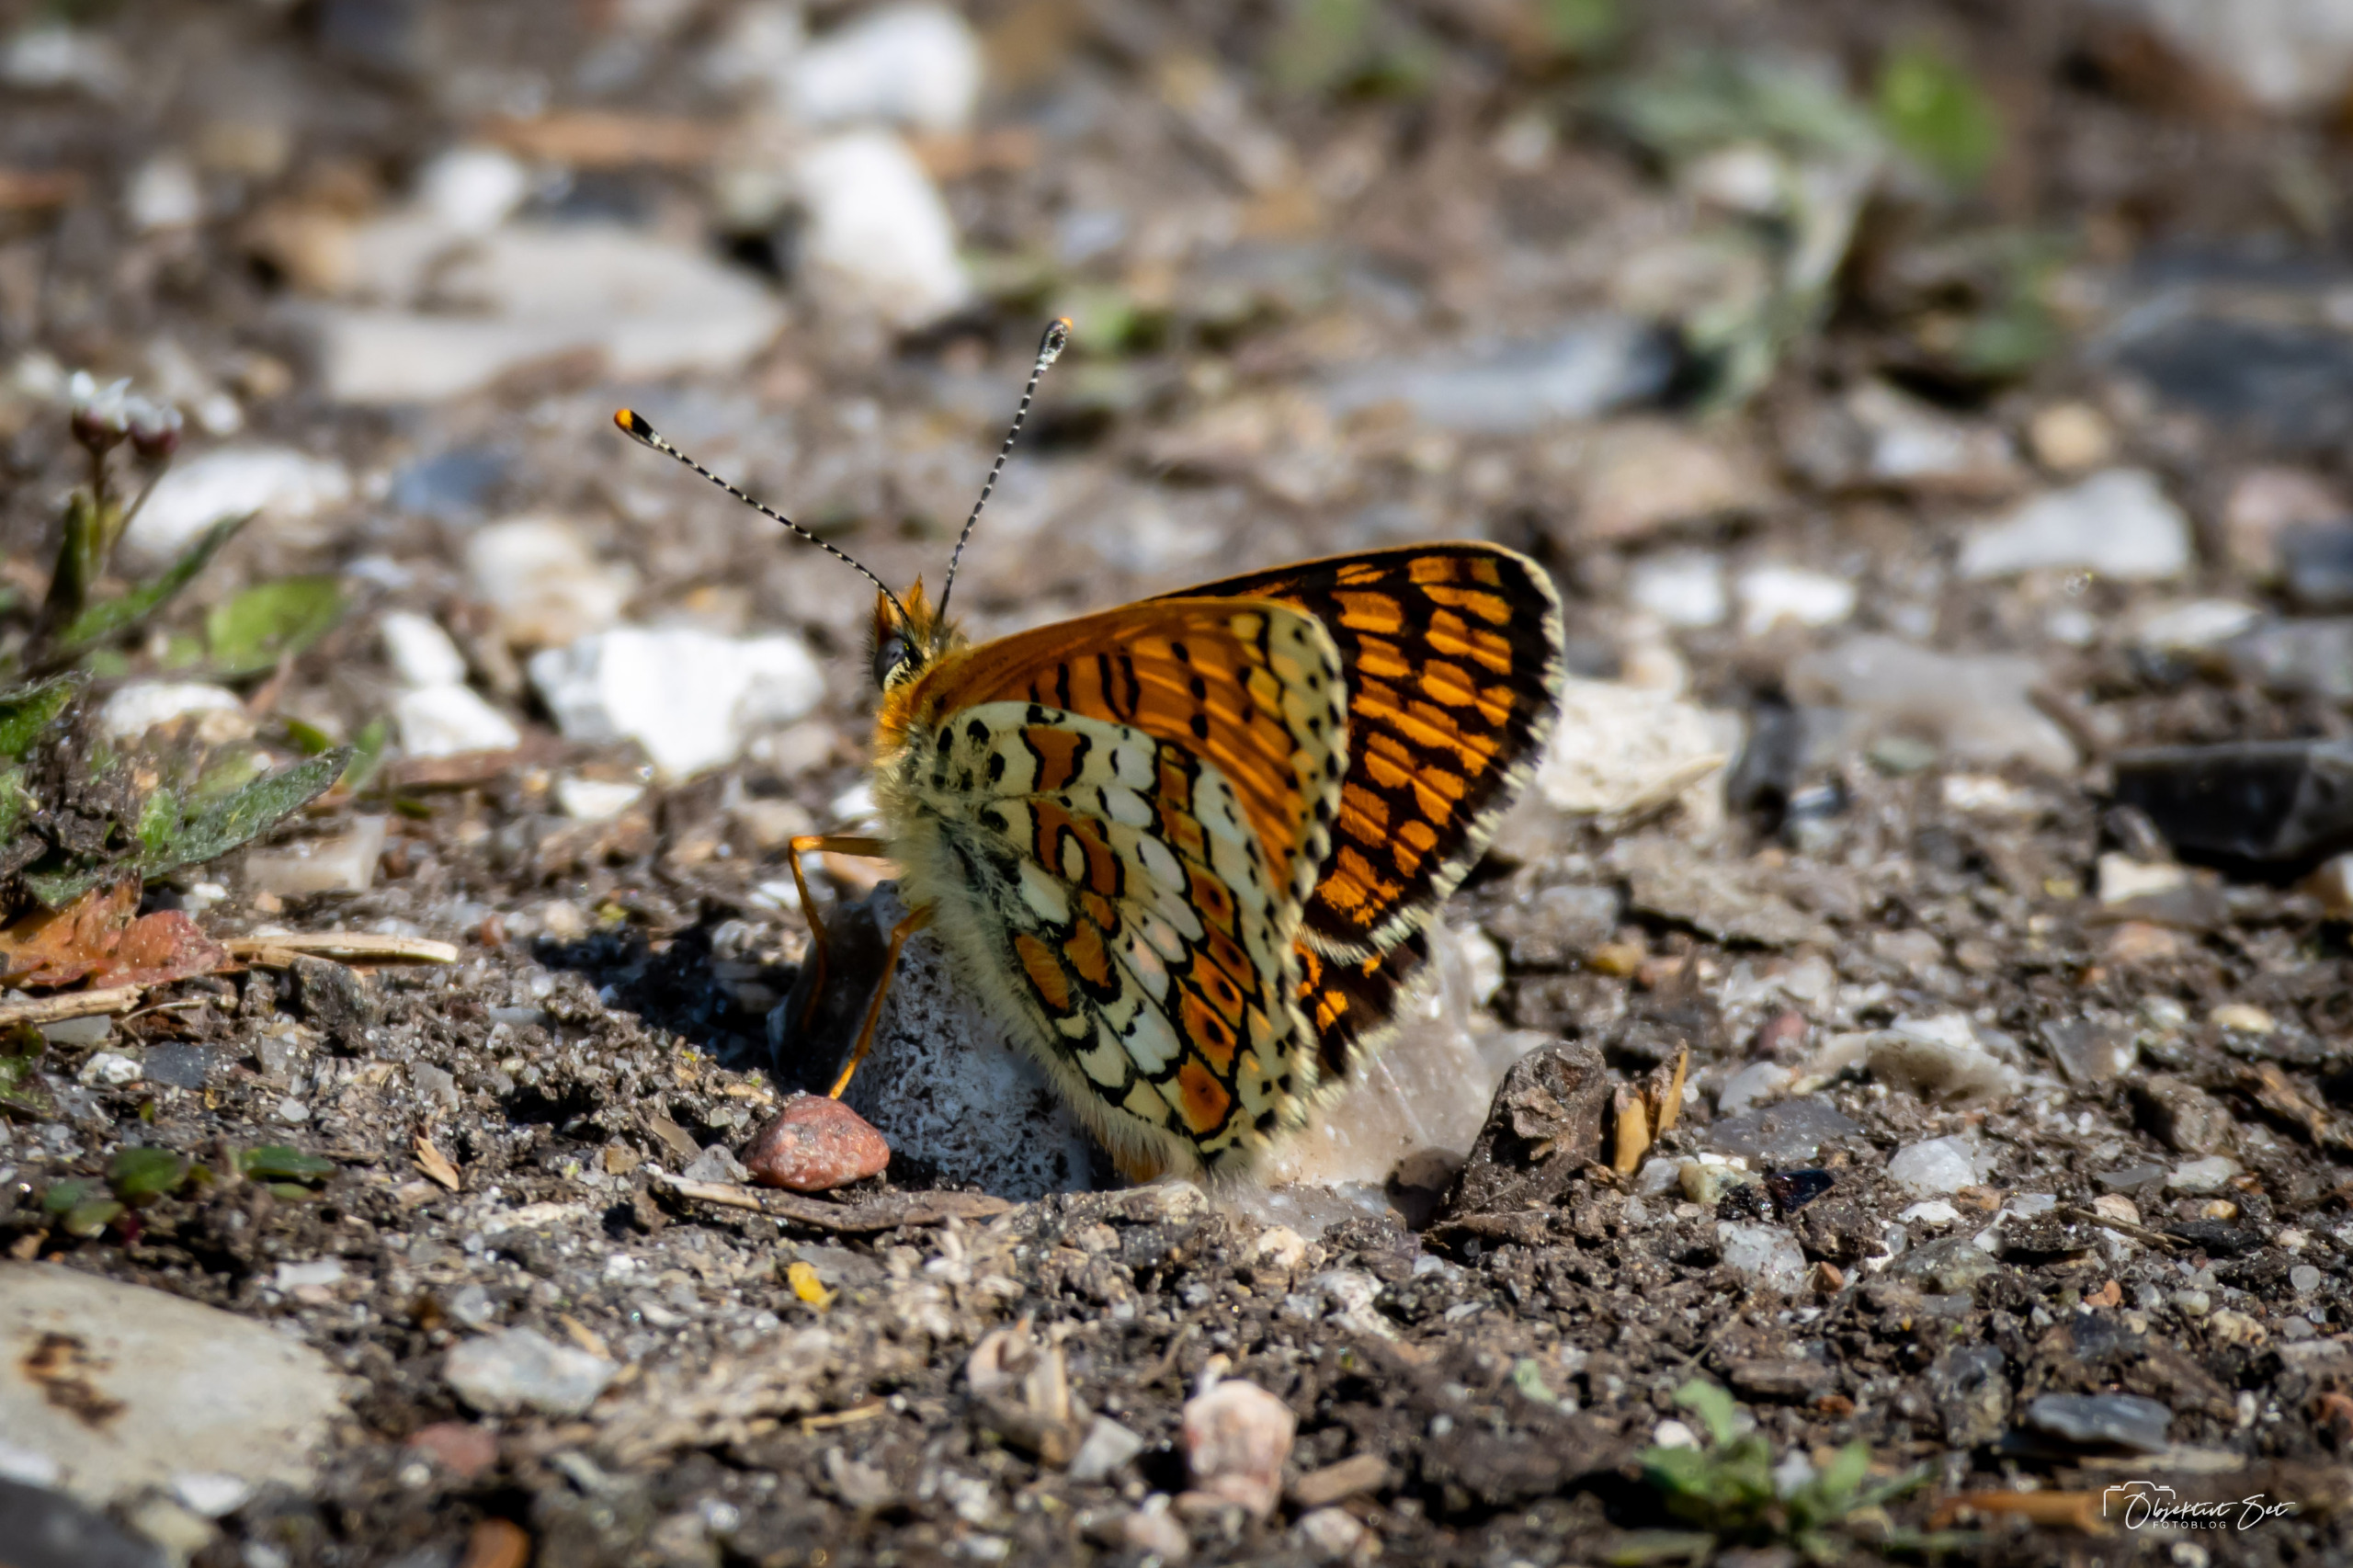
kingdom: Animalia
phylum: Arthropoda
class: Insecta
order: Lepidoptera
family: Nymphalidae
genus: Melitaea
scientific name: Melitaea cinxia
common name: Okkergul pletvinge
